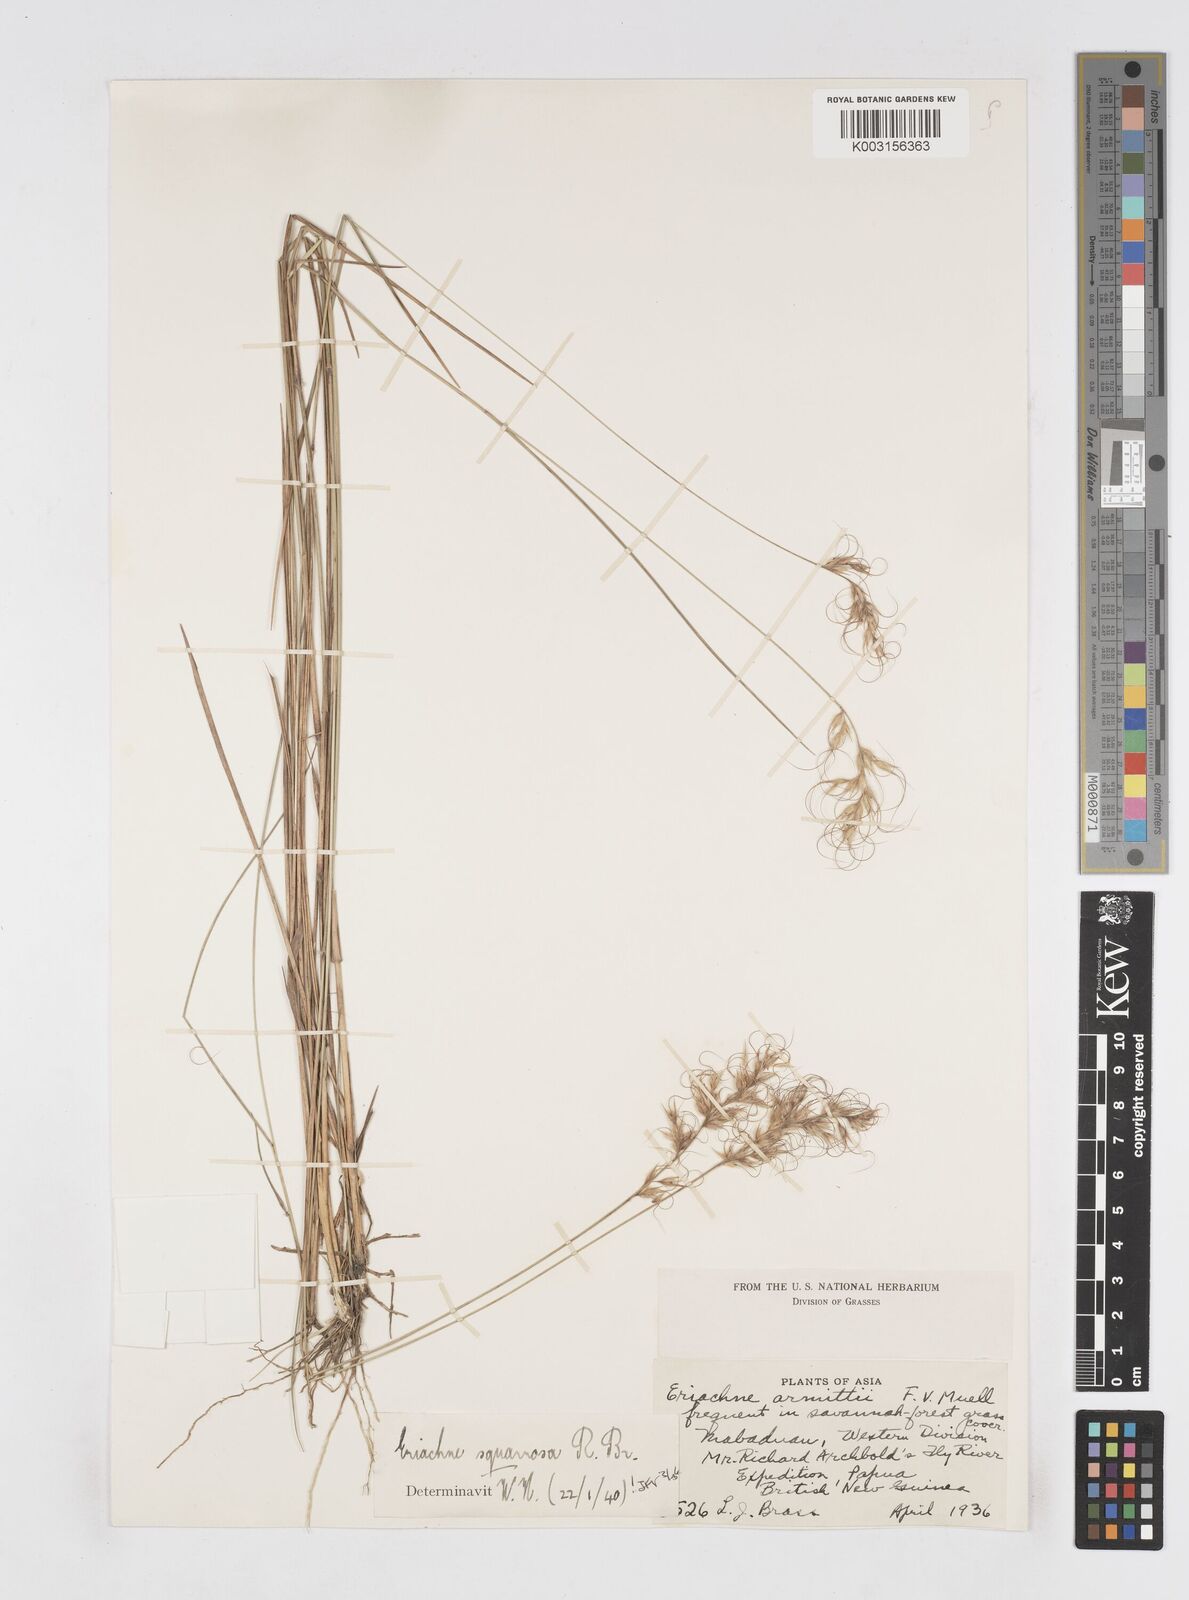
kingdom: Plantae
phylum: Tracheophyta
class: Liliopsida
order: Poales
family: Poaceae
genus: Eriachne
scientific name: Eriachne squarrosa
